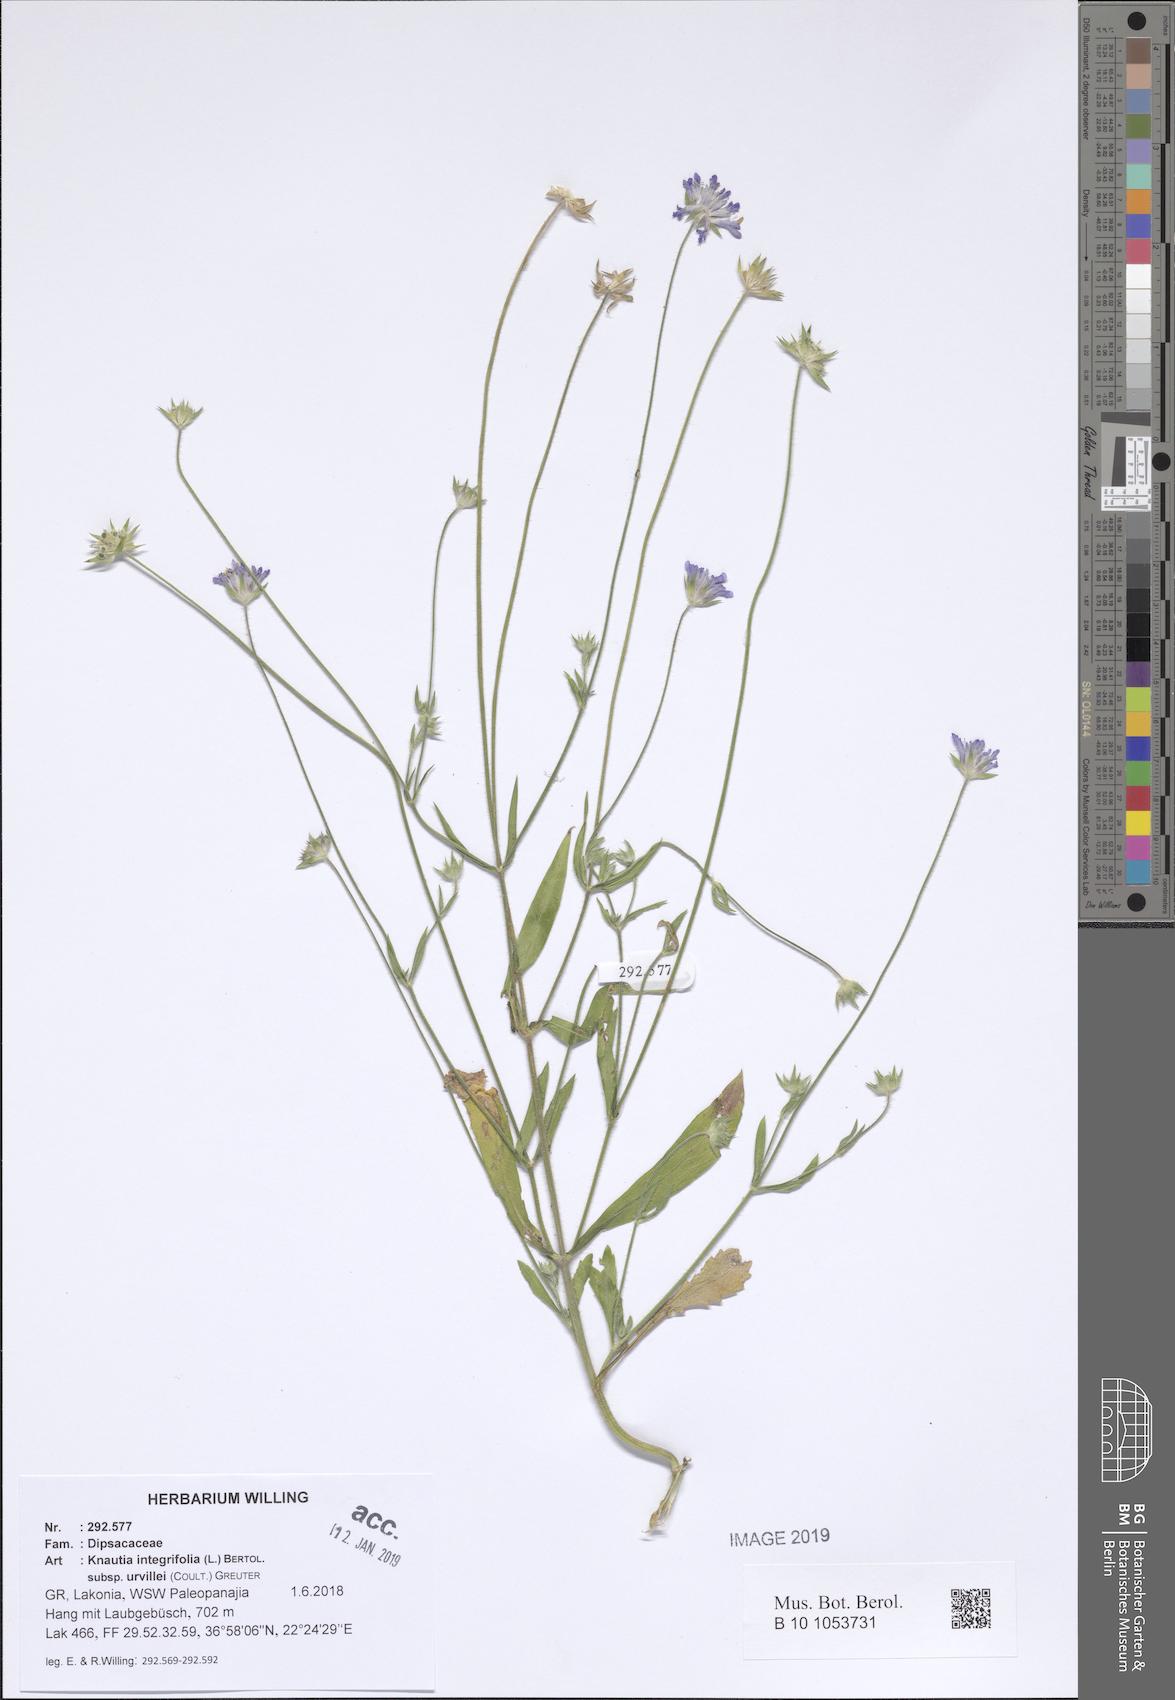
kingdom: Plantae
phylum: Tracheophyta
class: Magnoliopsida
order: Dipsacales
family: Caprifoliaceae
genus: Knautia
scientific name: Knautia integrifolia
